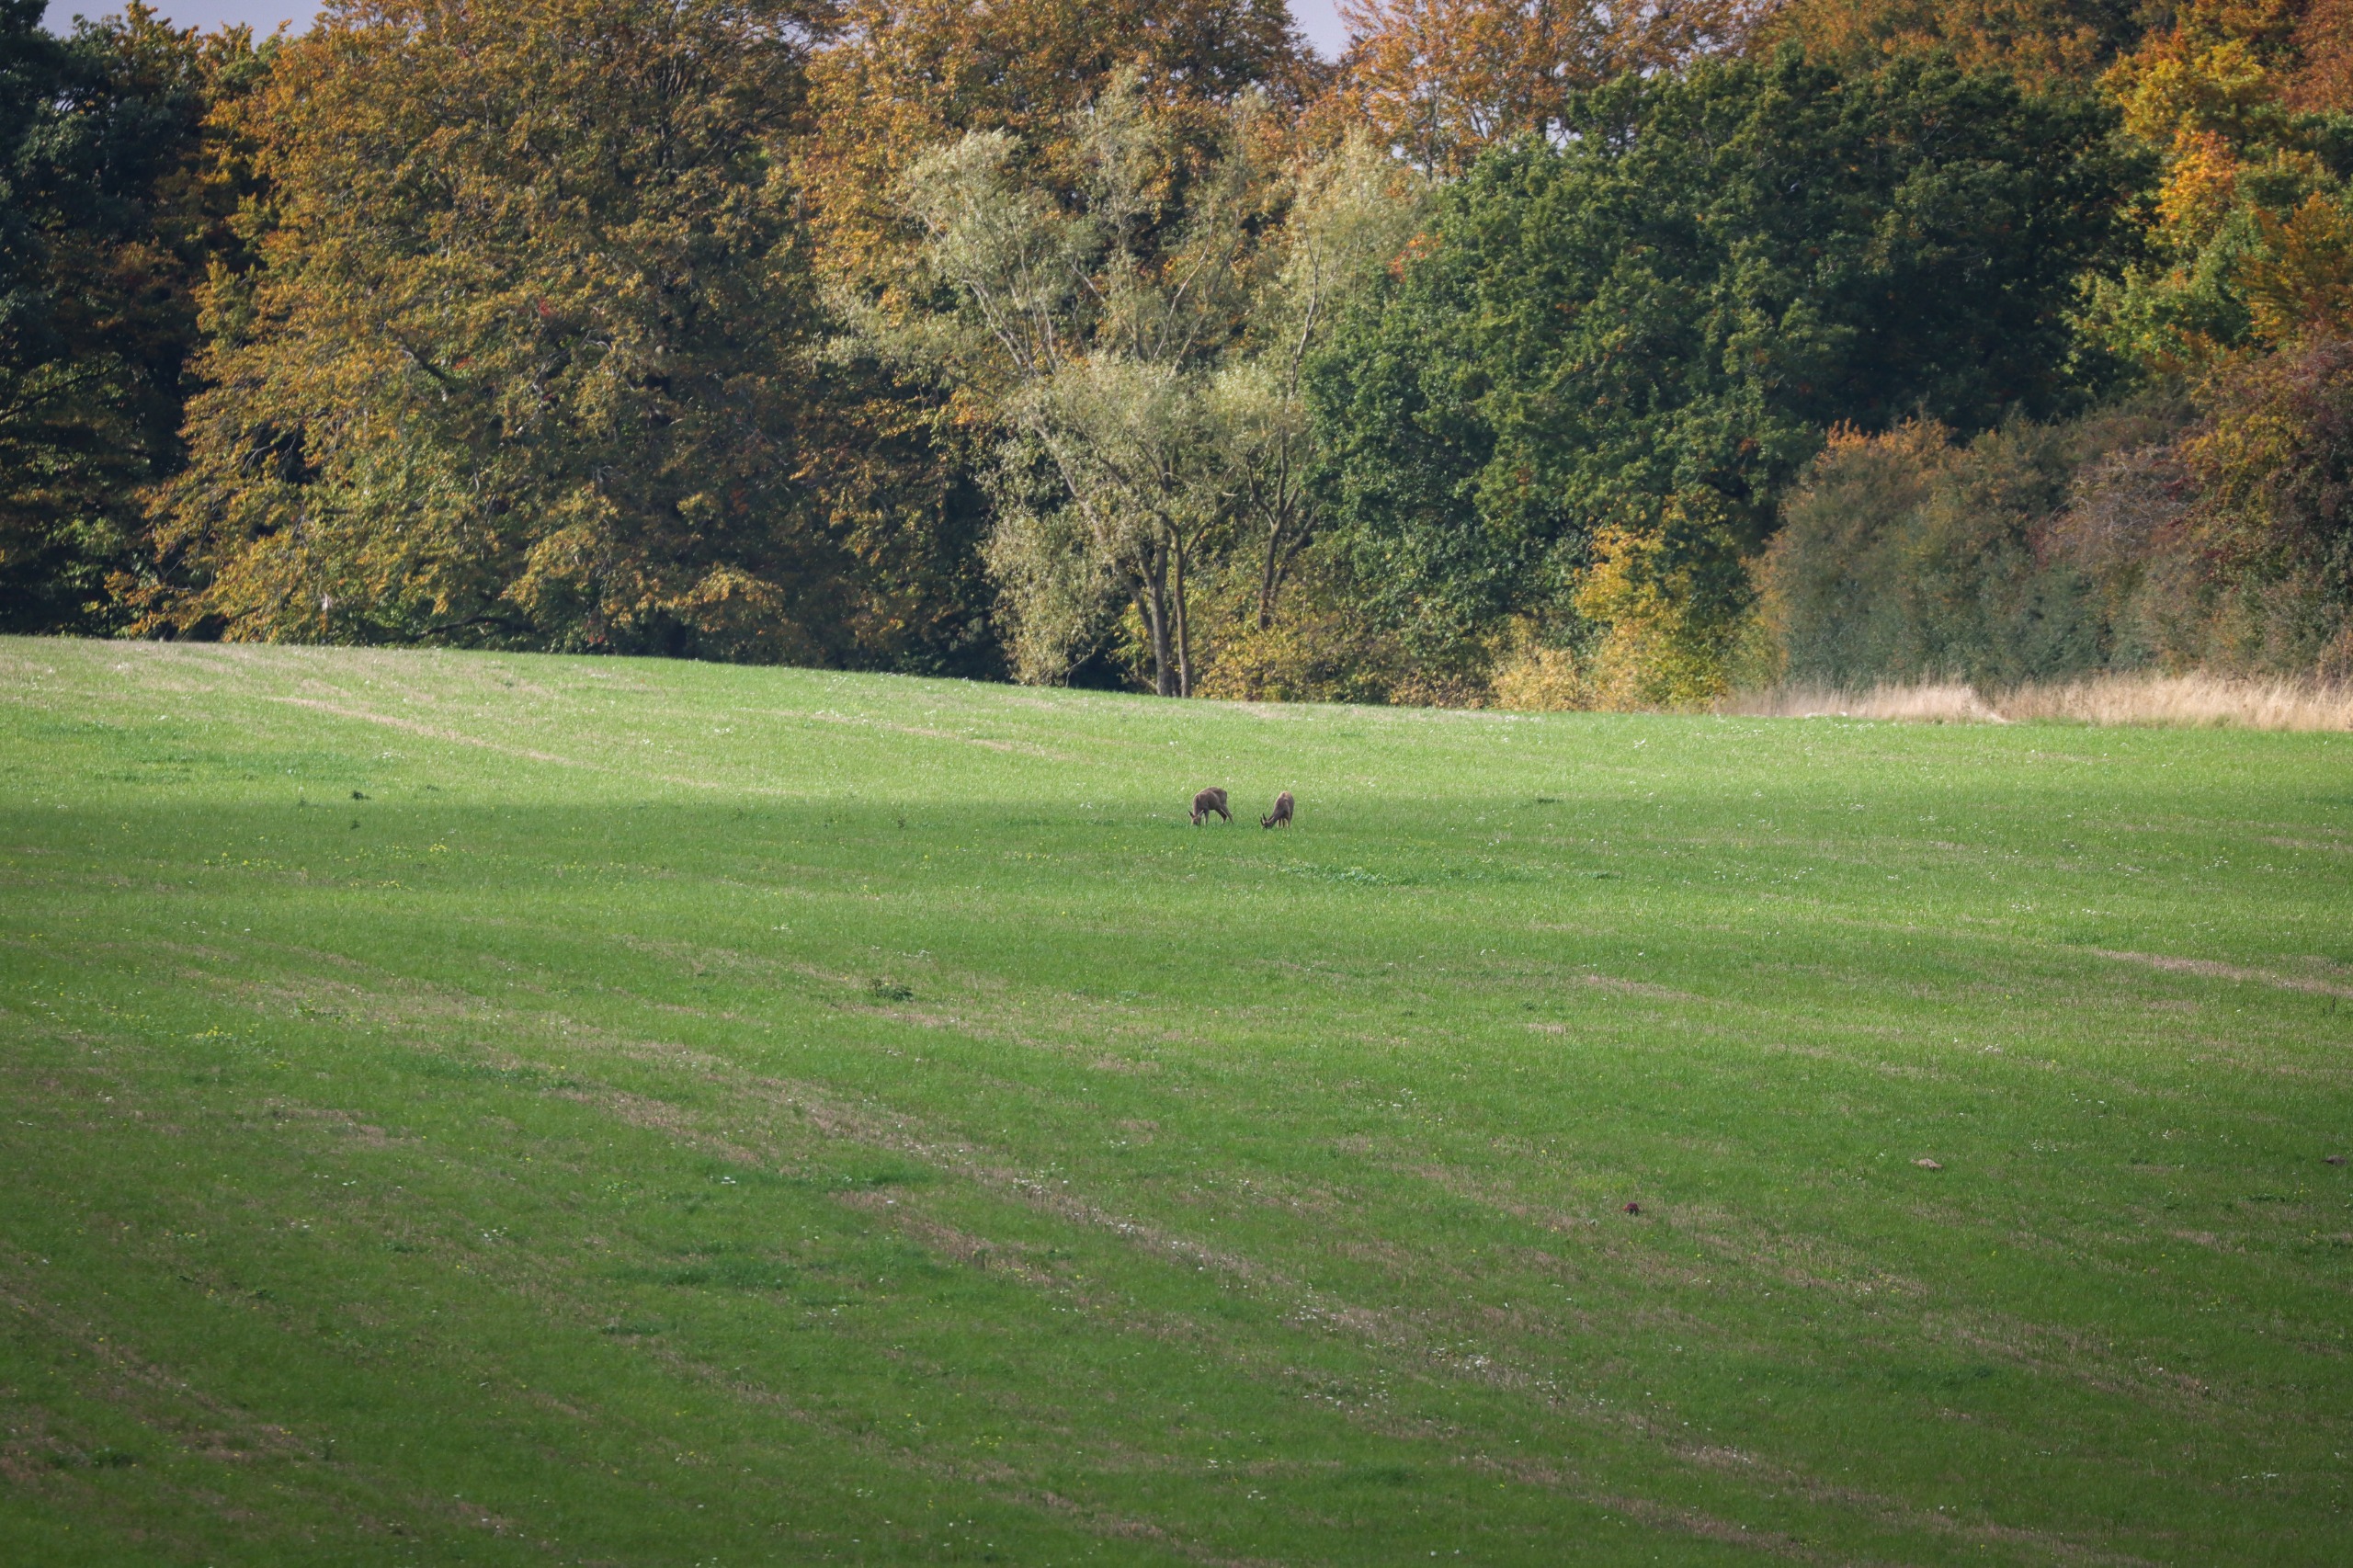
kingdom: Animalia
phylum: Chordata
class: Mammalia
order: Artiodactyla
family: Cervidae
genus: Capreolus
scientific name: Capreolus capreolus
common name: Rådyr
